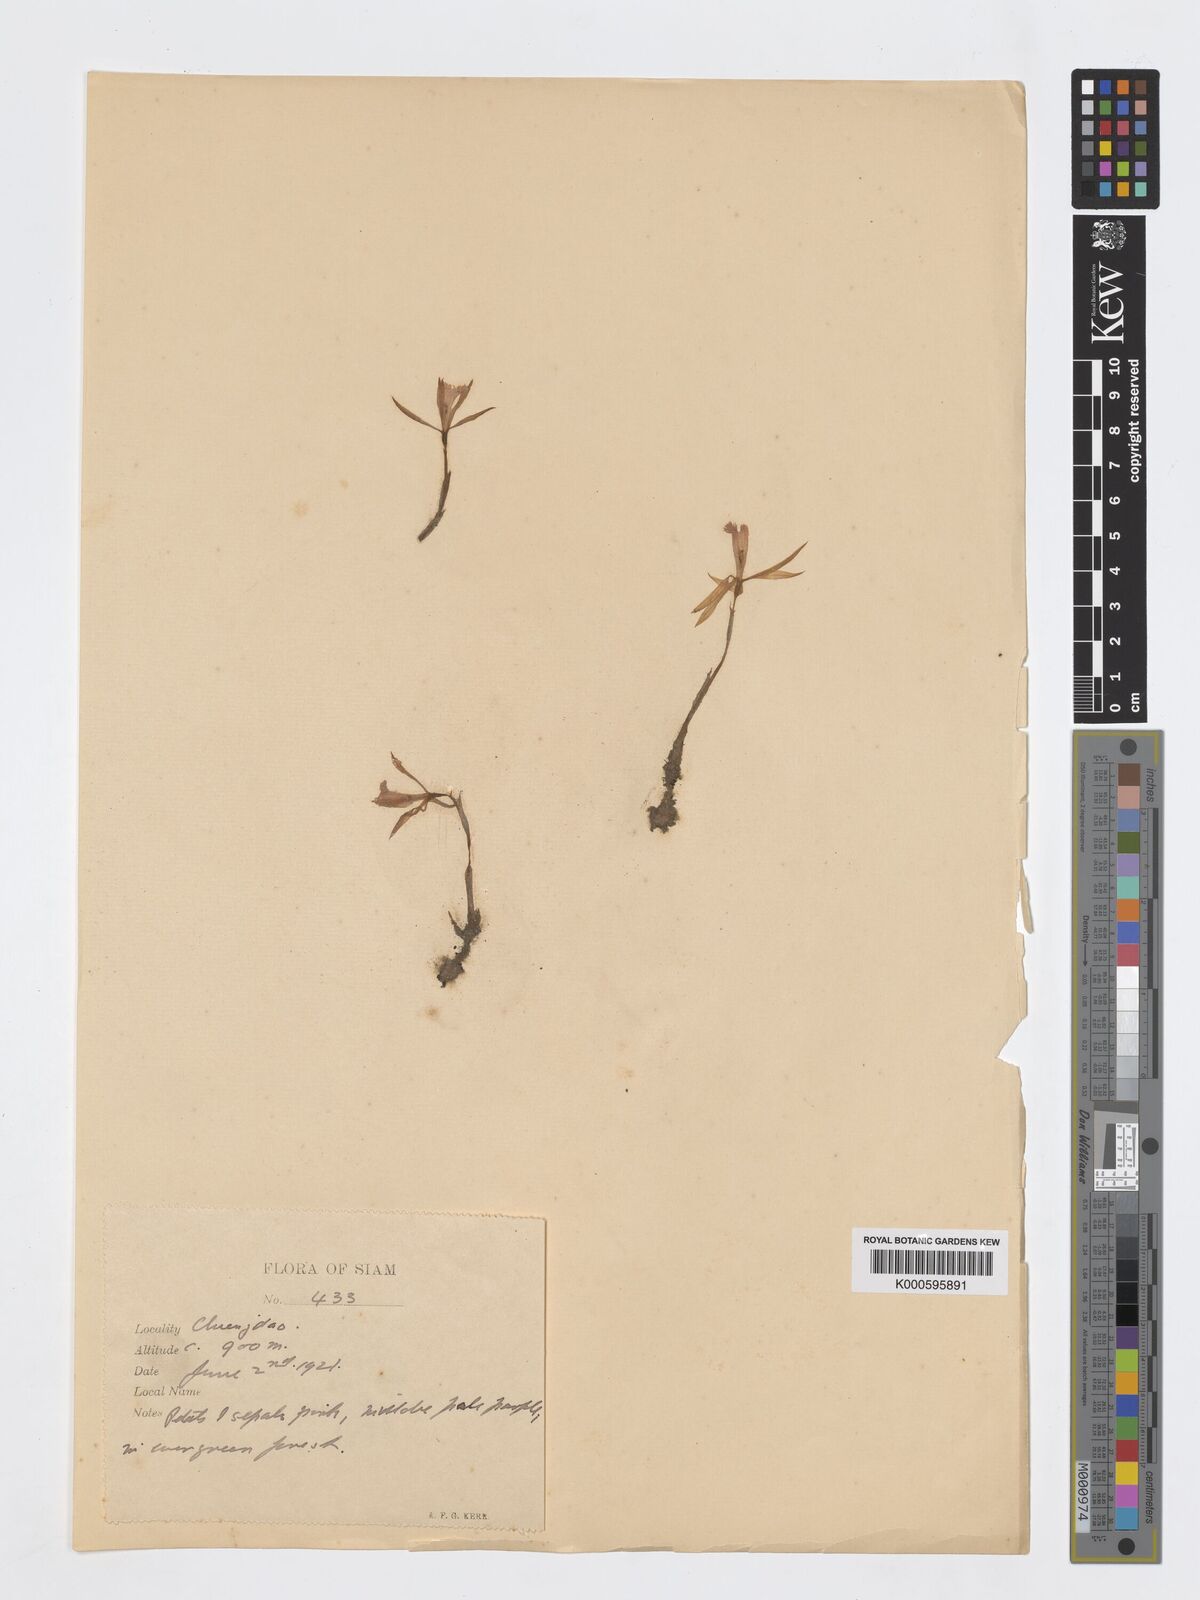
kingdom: Plantae
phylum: Tracheophyta
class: Liliopsida
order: Asparagales
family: Orchidaceae
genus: Nervilia
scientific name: Nervilia simplex
